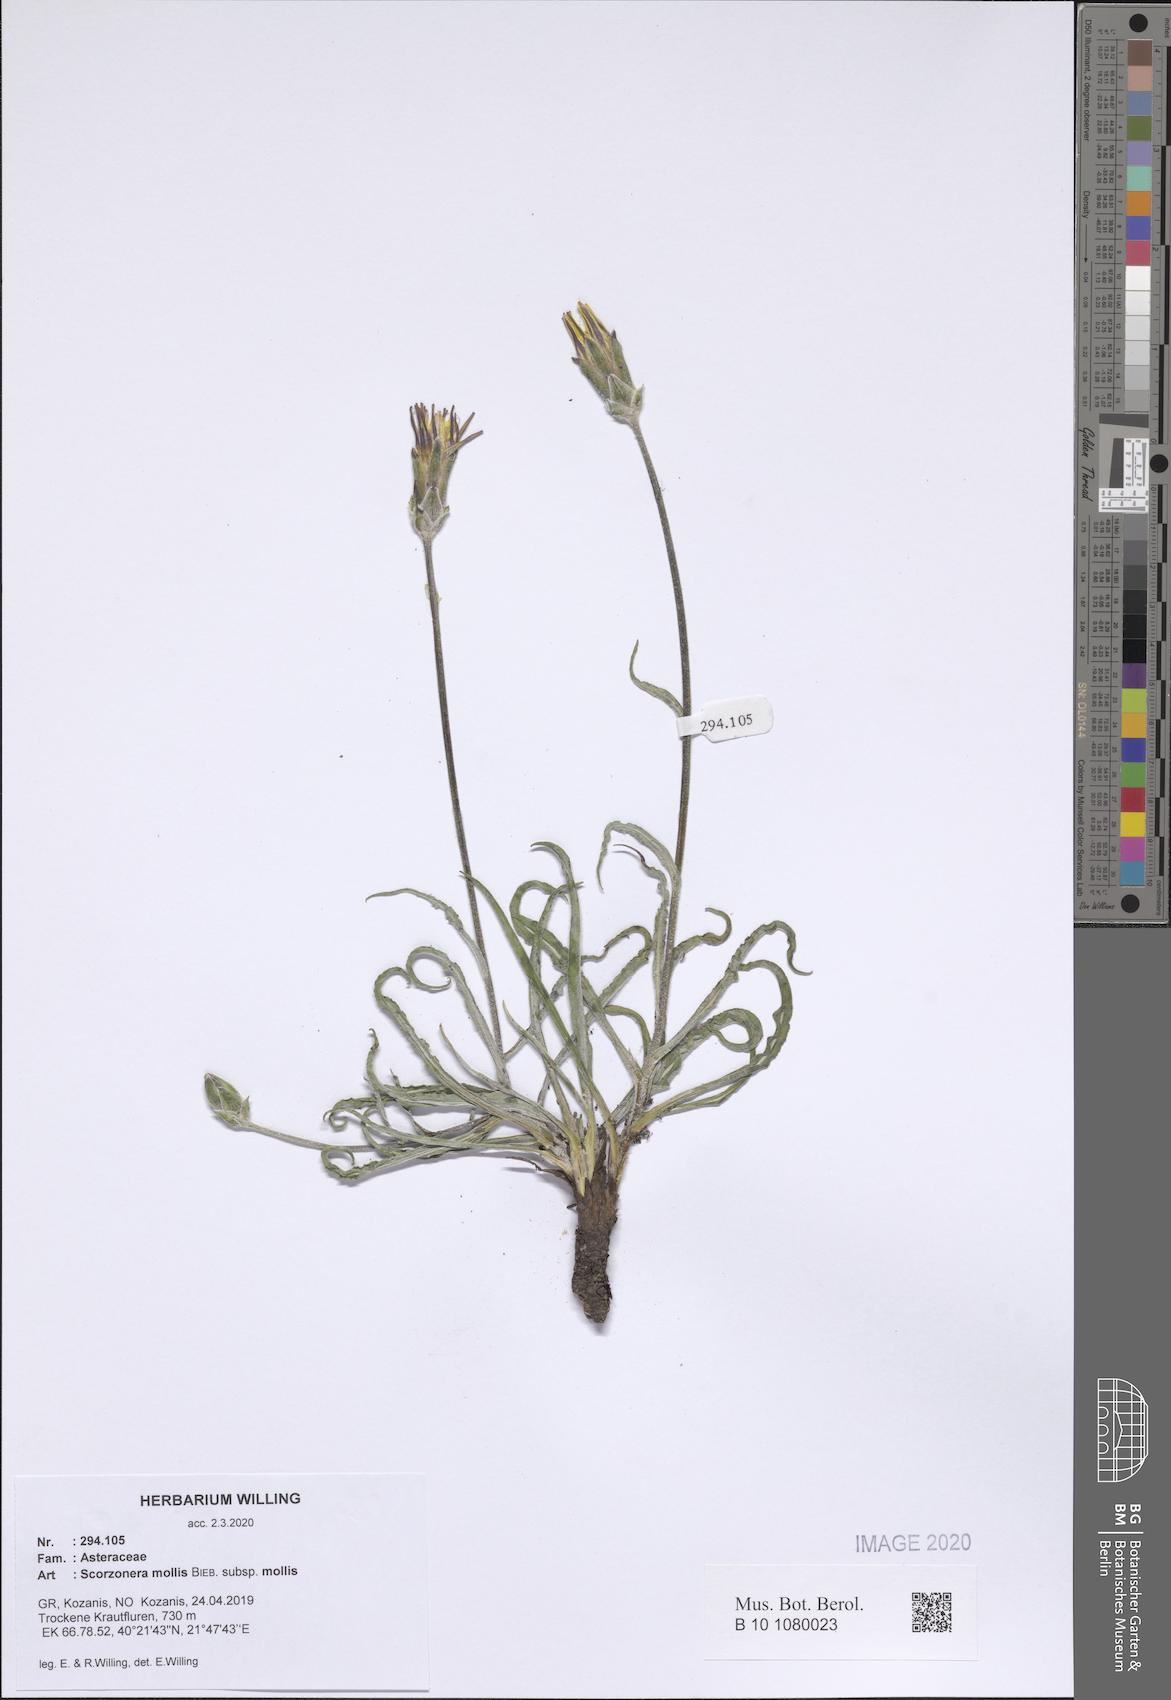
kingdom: Plantae
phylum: Tracheophyta
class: Magnoliopsida
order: Asterales
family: Asteraceae
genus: Candollea
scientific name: Candollea mollis
